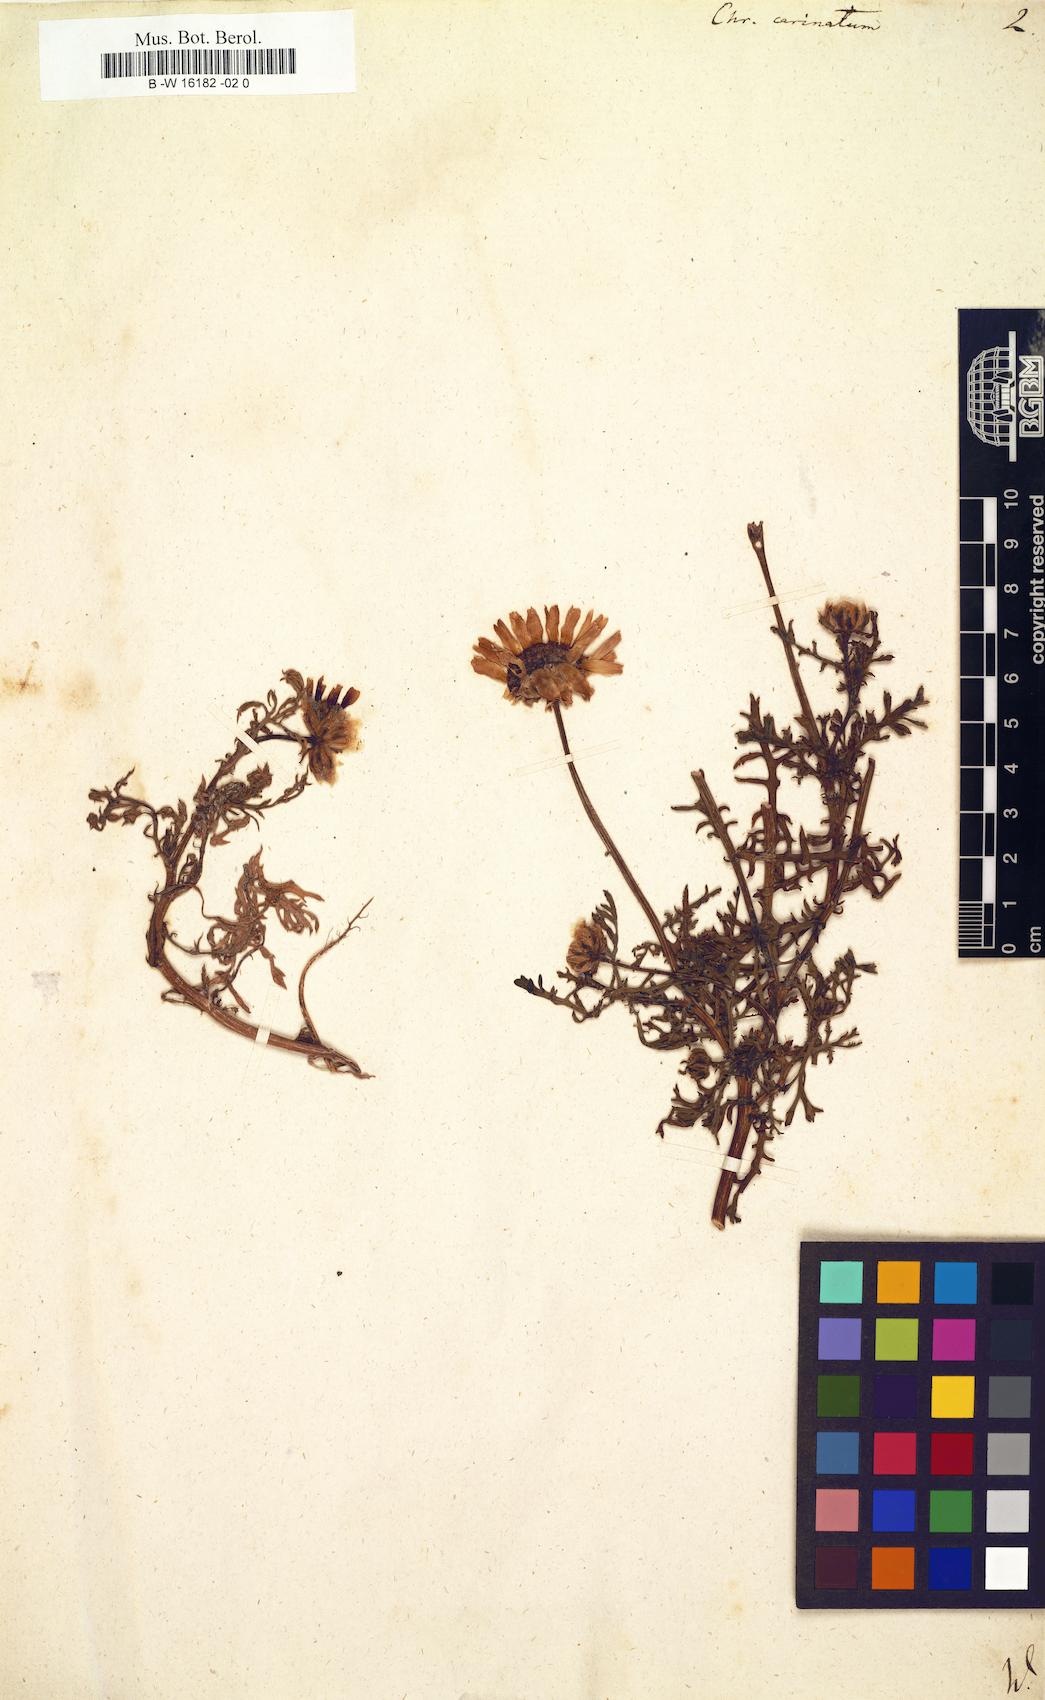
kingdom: Plantae
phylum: Tracheophyta
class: Magnoliopsida
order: Asterales
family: Asteraceae
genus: Glebionis
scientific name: Glebionis carinata
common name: Painted daisy
